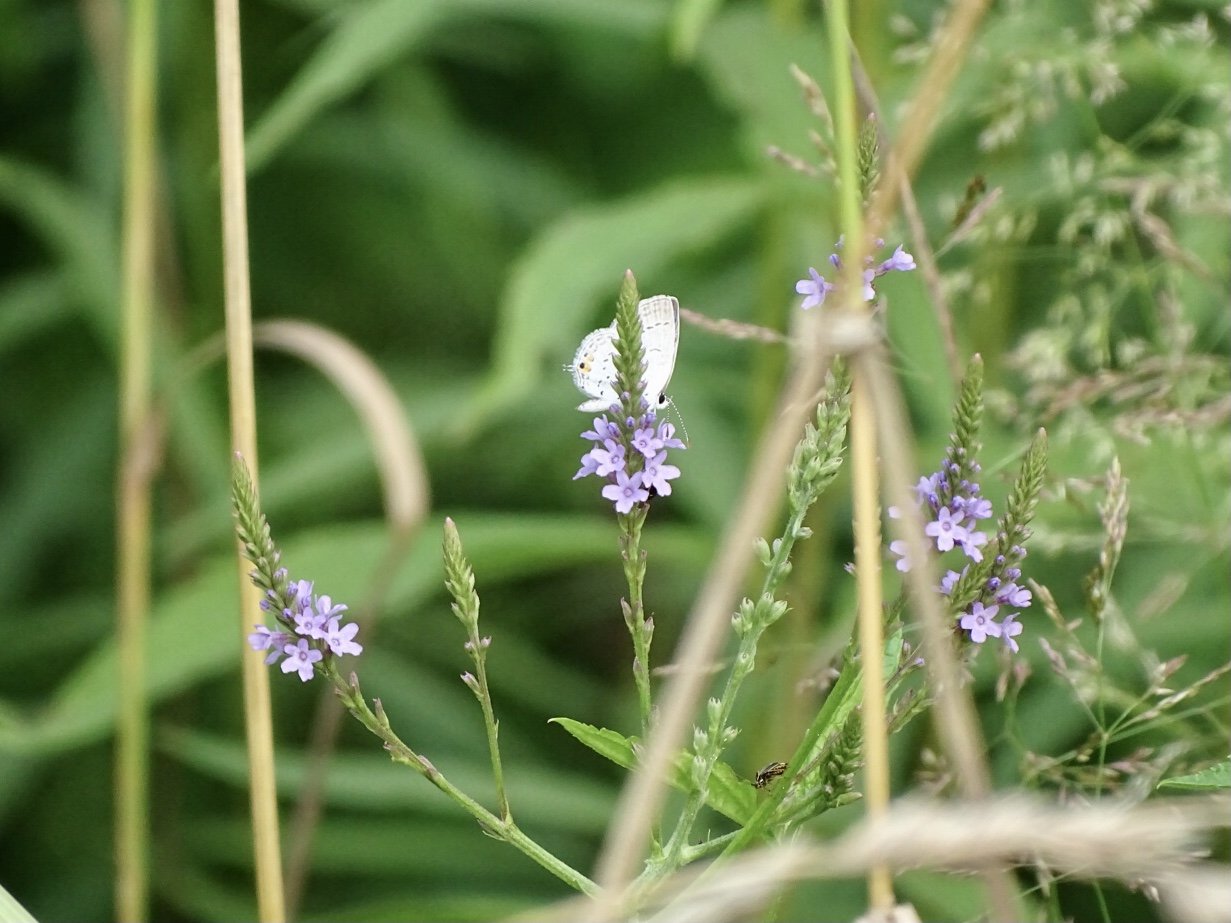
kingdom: Animalia
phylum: Arthropoda
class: Insecta
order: Lepidoptera
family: Lycaenidae
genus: Elkalyce
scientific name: Elkalyce comyntas
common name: Eastern Tailed-Blue
